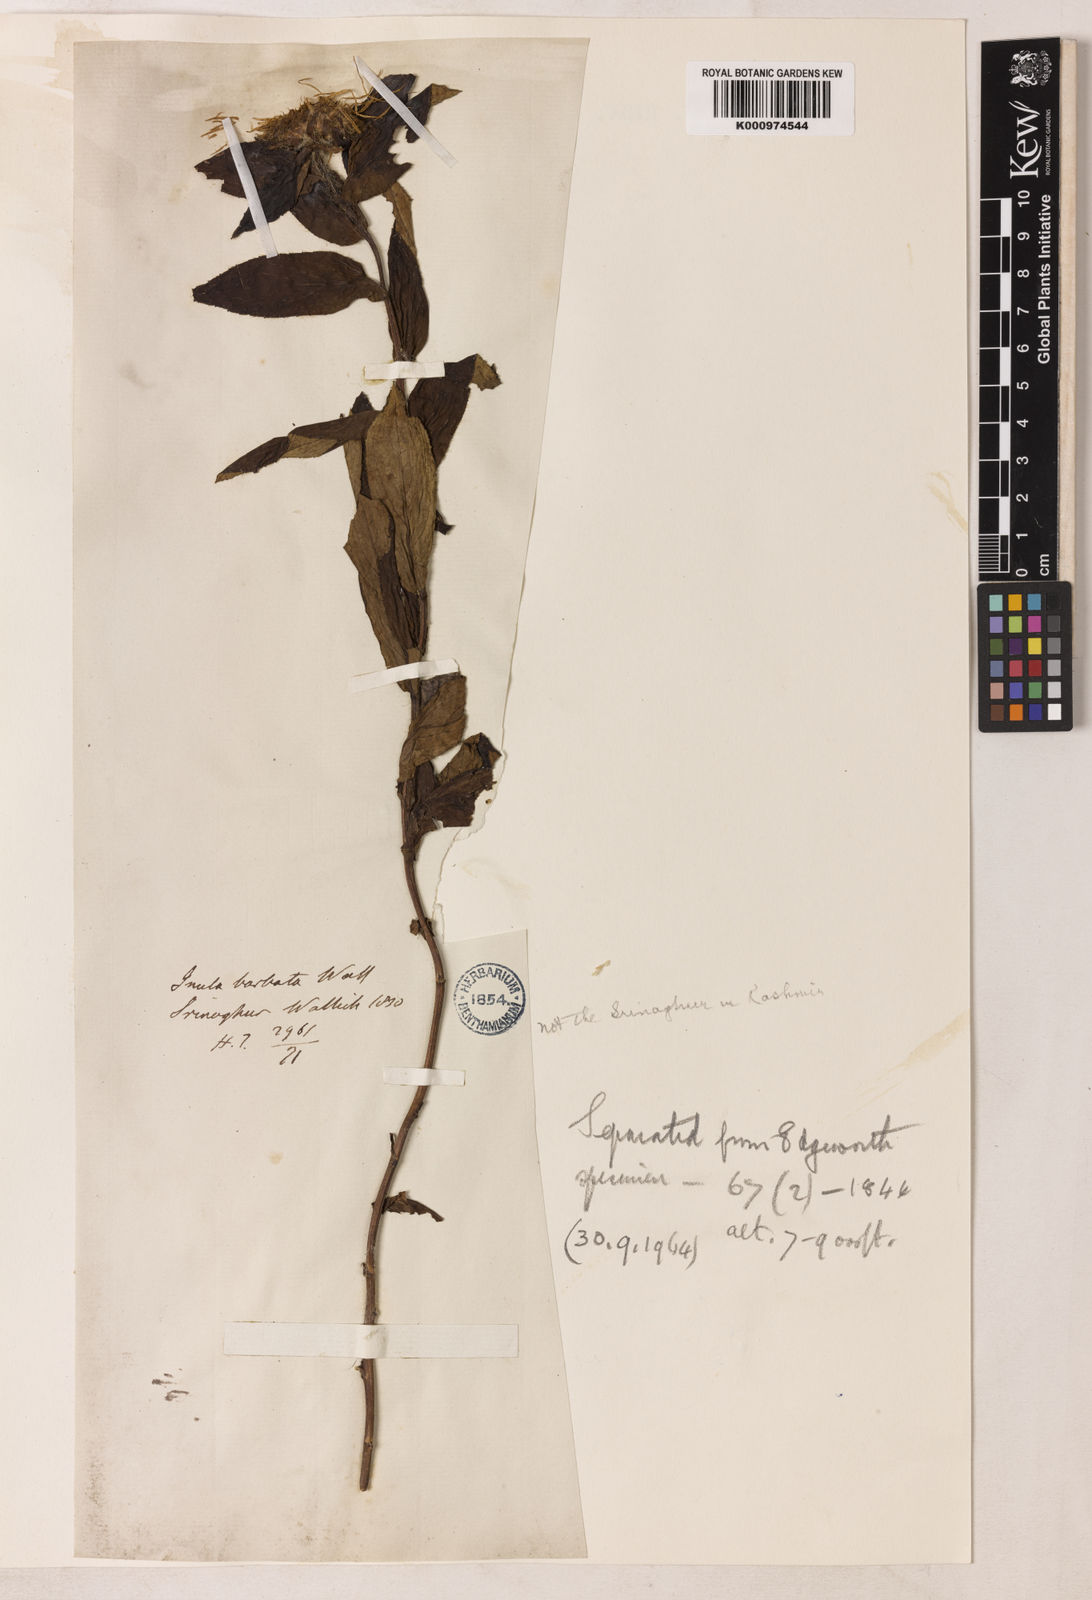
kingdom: Plantae
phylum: Tracheophyta
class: Magnoliopsida
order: Asterales
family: Asteraceae
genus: Inula
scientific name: Inula grandiflora
